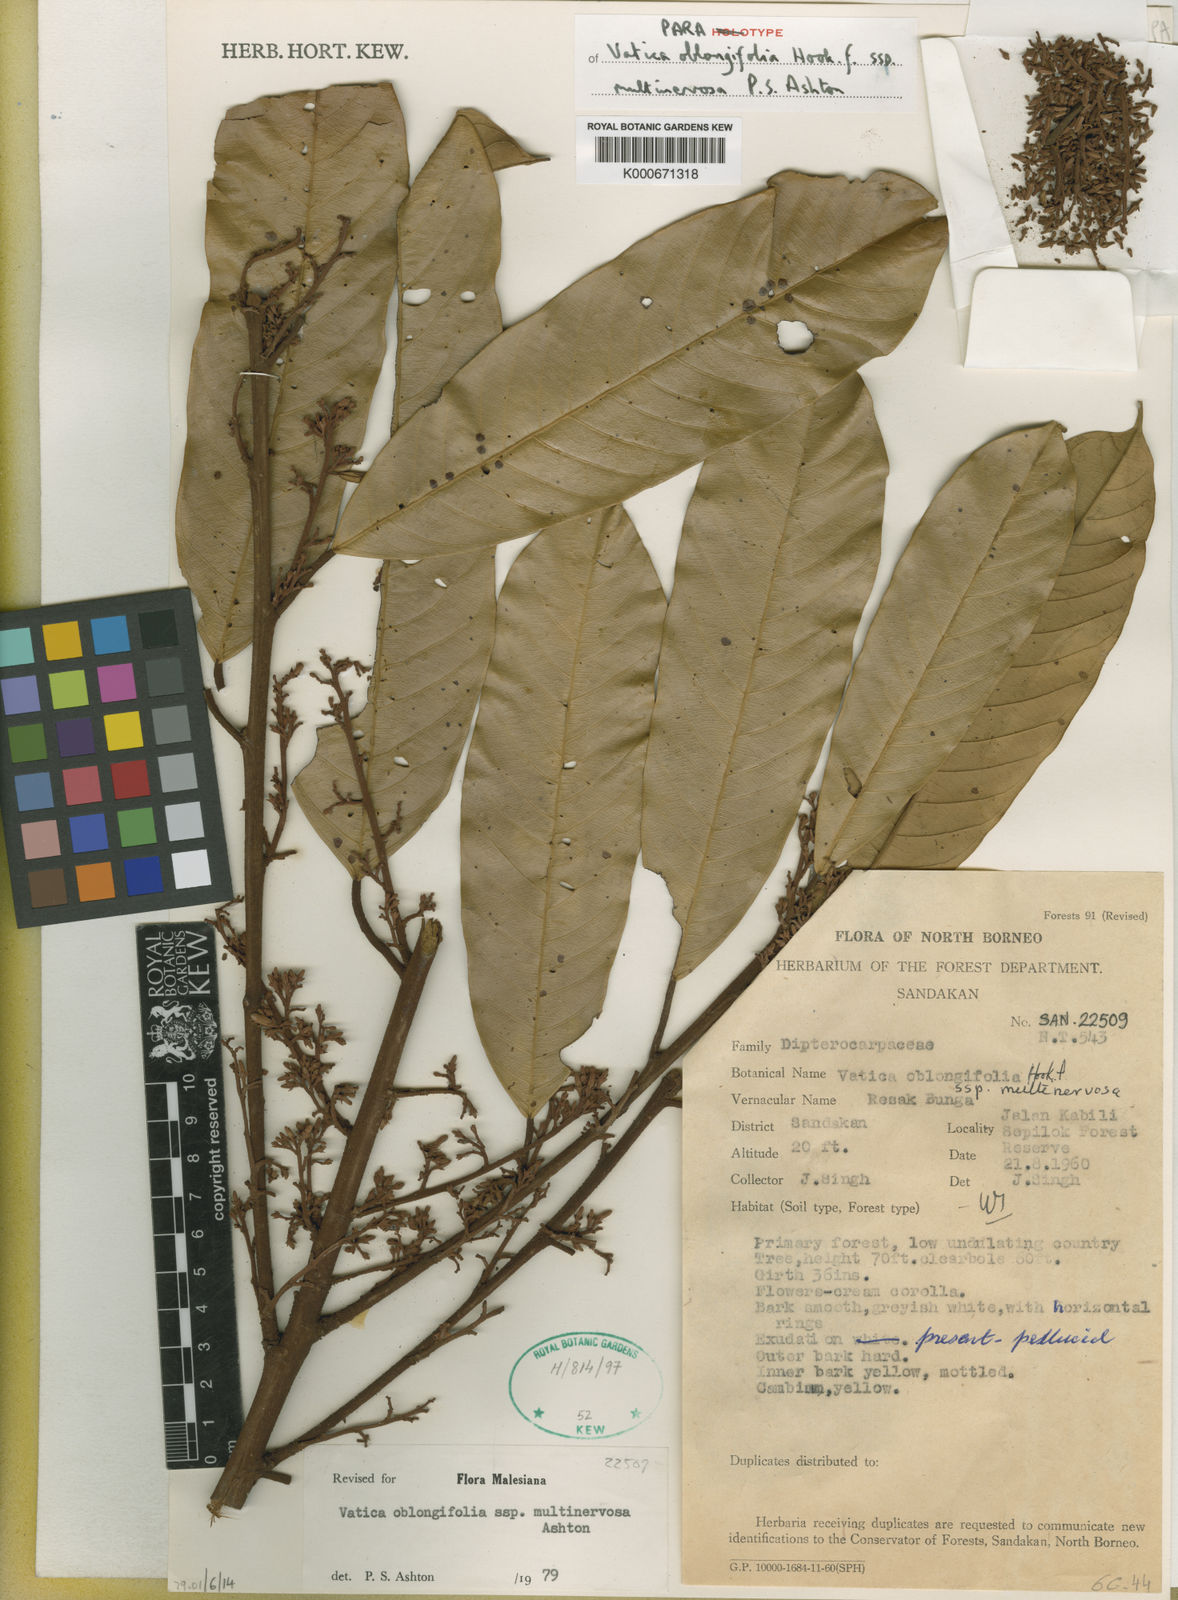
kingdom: Plantae
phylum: Tracheophyta
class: Magnoliopsida
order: Malvales
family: Dipterocarpaceae
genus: Vatica
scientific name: Vatica oblongifolia
